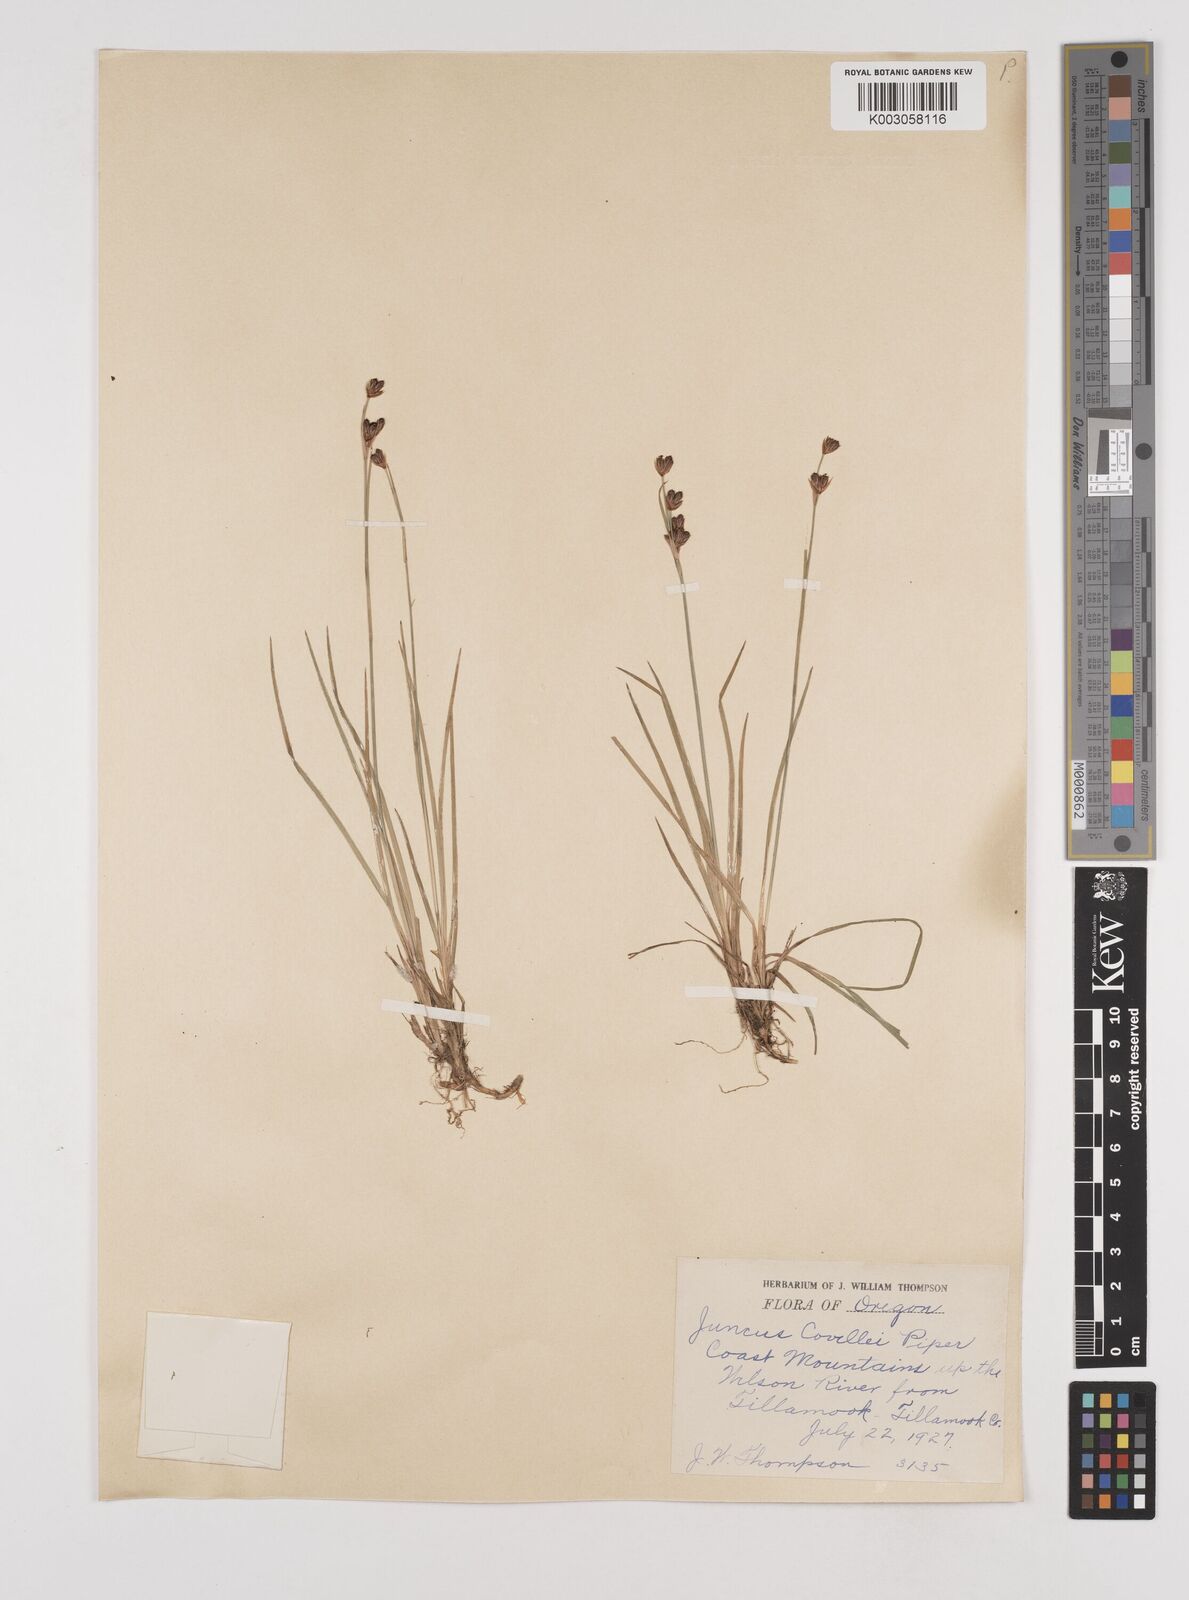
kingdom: Plantae
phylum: Tracheophyta
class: Liliopsida
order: Poales
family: Juncaceae
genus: Juncus
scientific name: Juncus covillei
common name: Coville's rush
